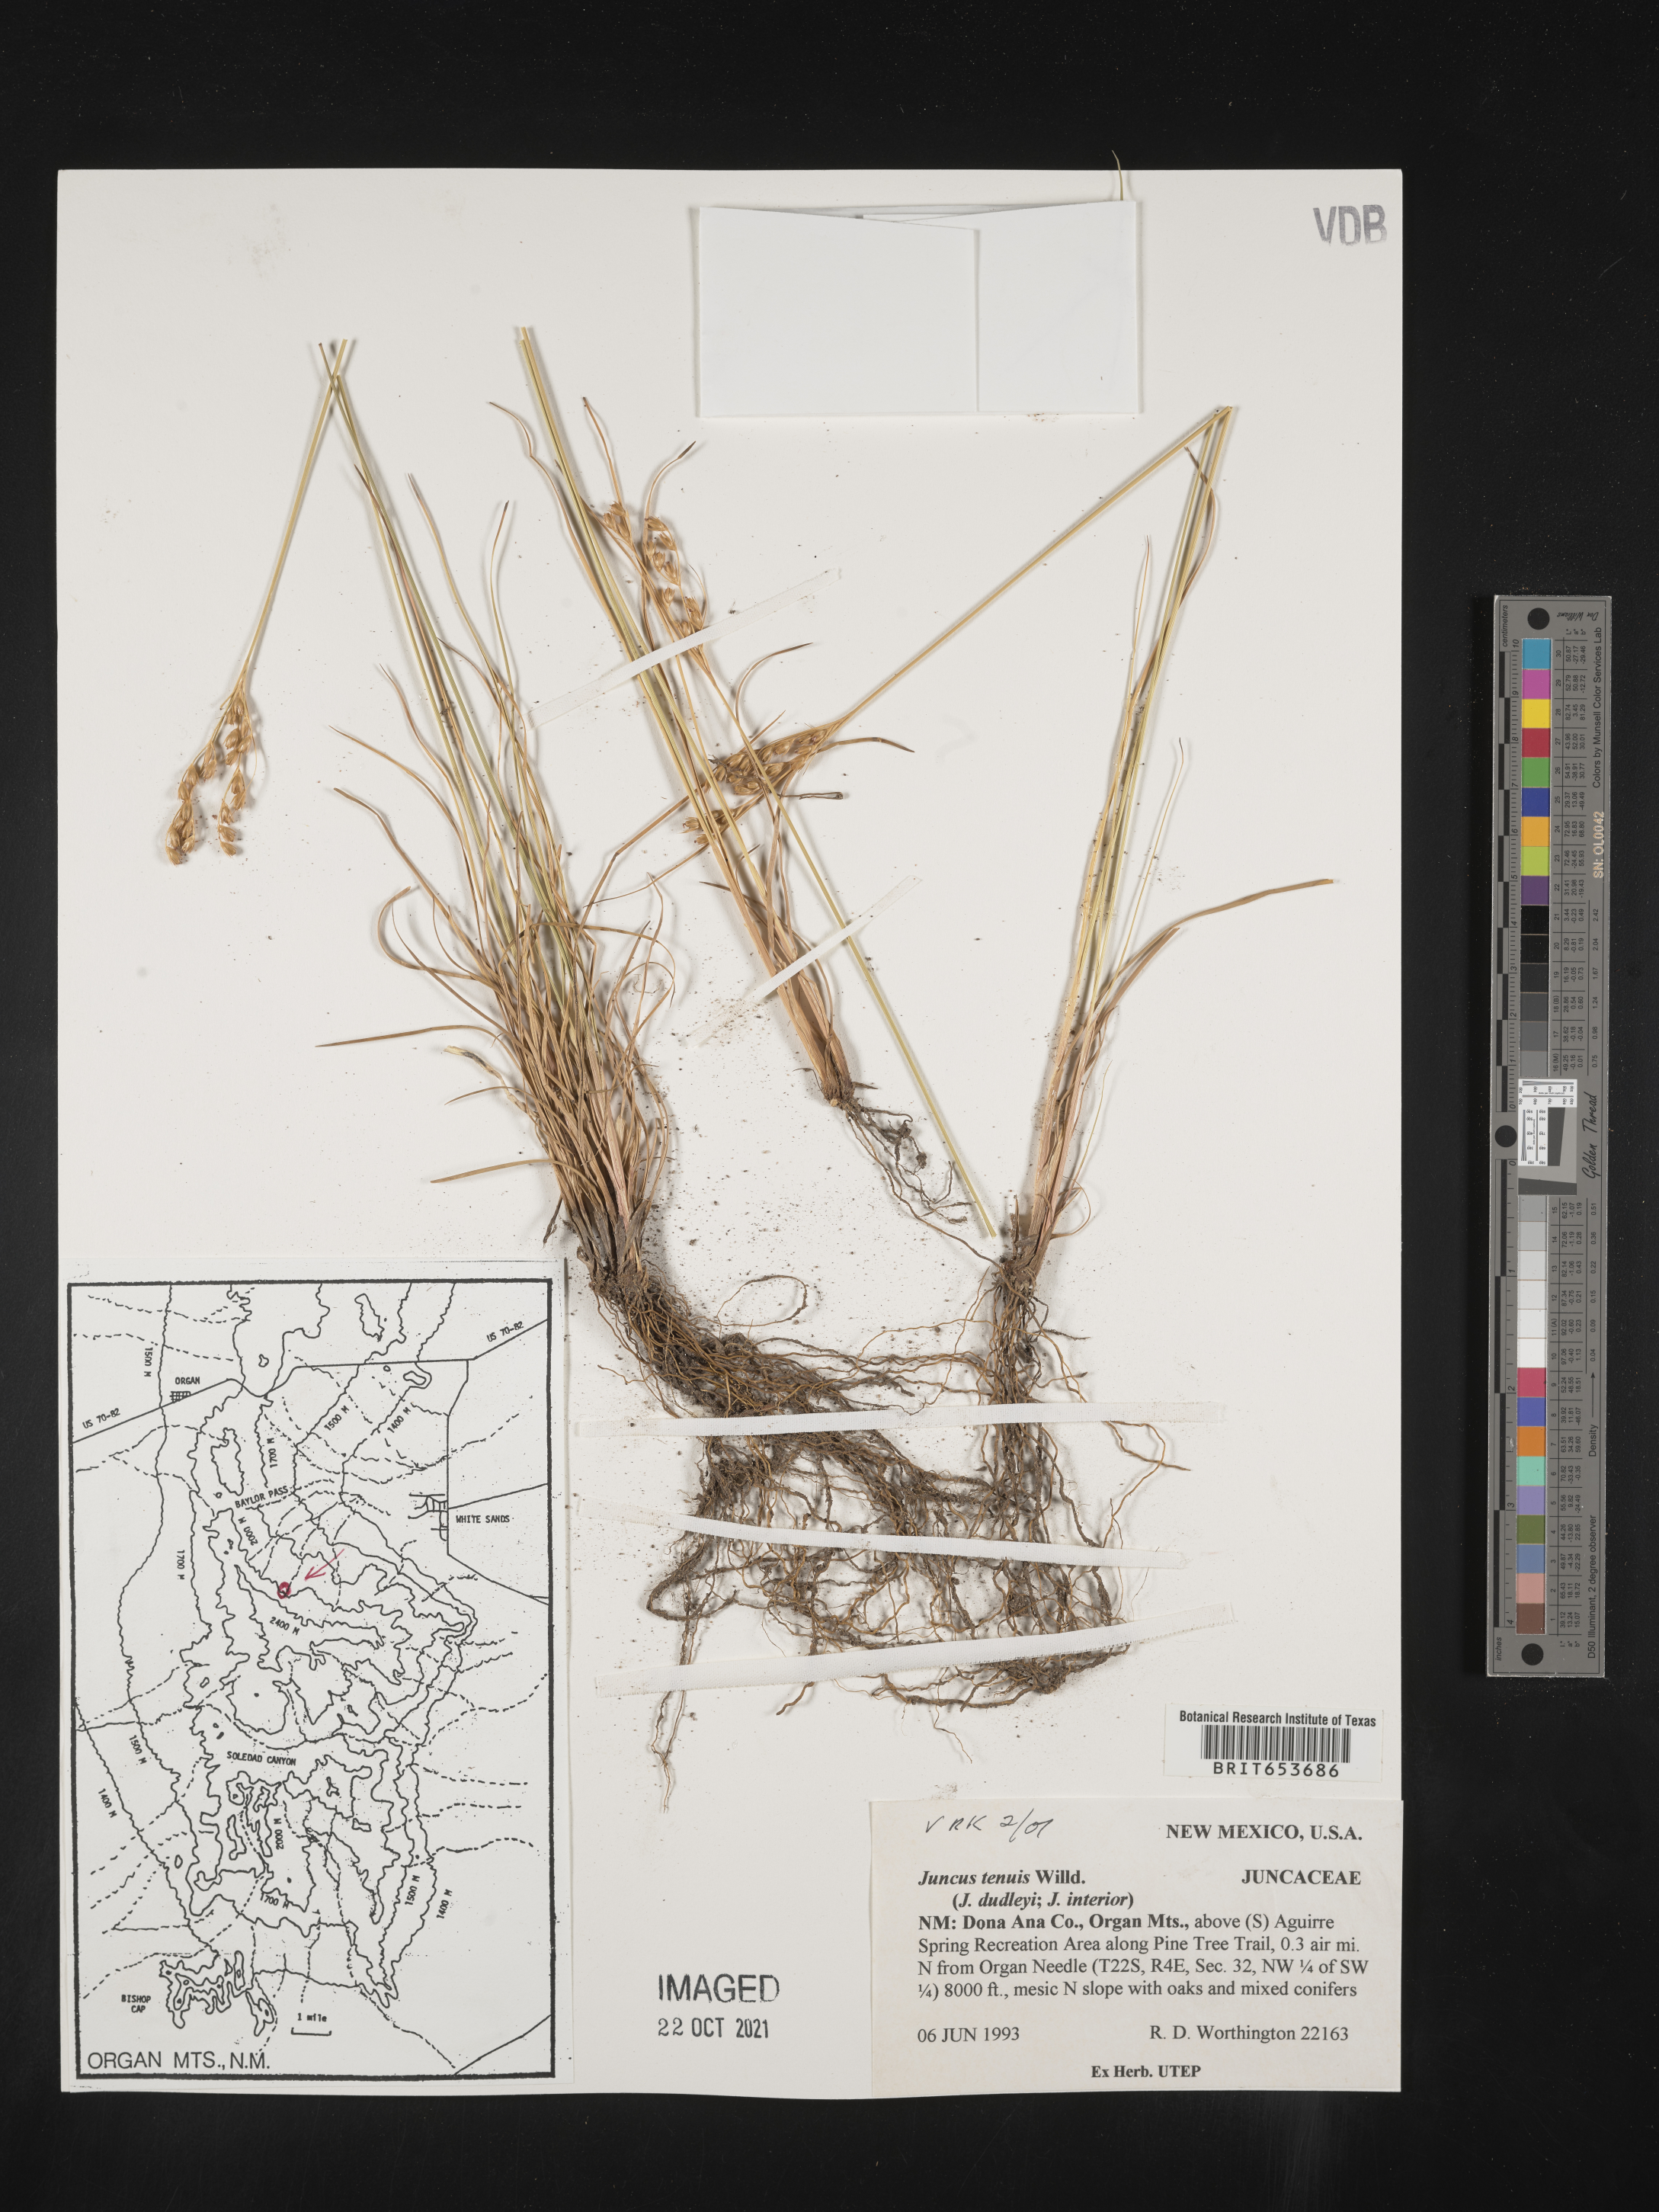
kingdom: Plantae
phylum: Tracheophyta
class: Liliopsida
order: Poales
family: Juncaceae
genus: Juncus
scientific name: Juncus tenuis
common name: Slender rush
